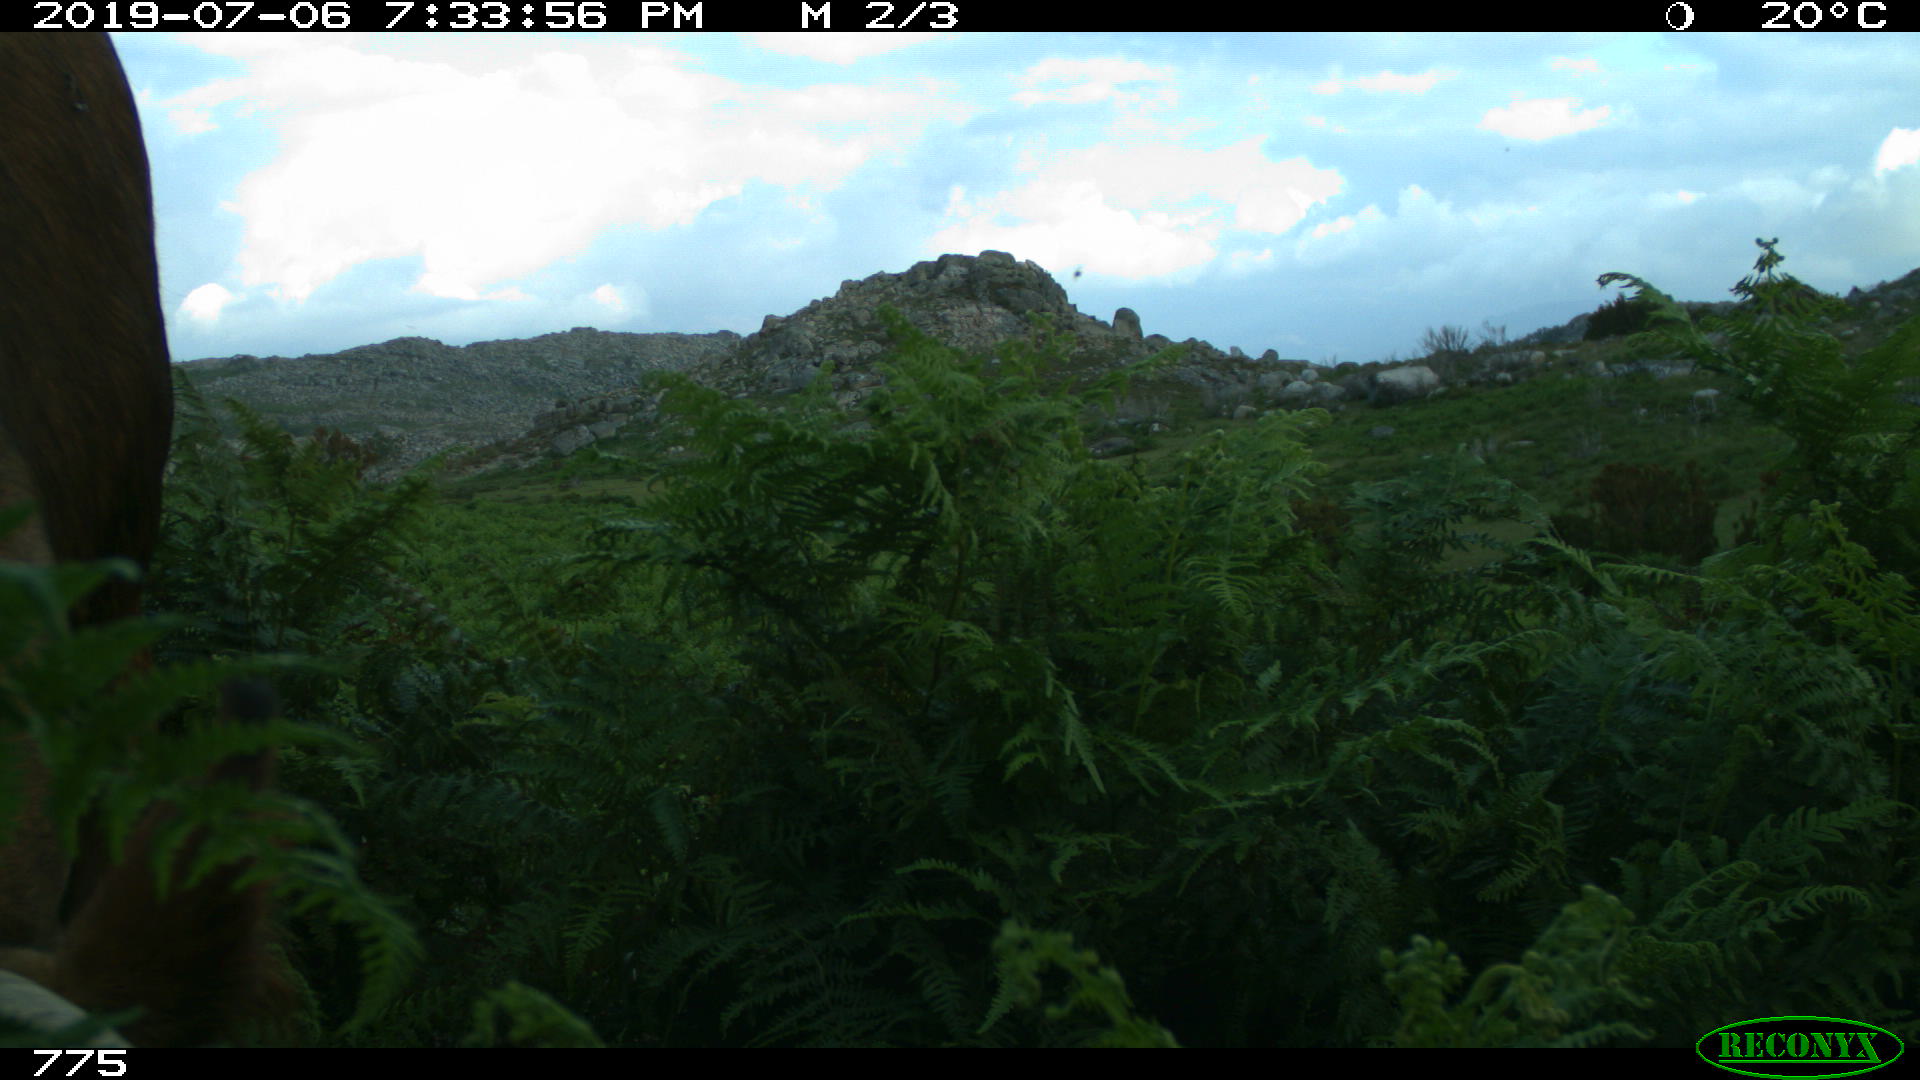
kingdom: Animalia
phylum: Chordata
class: Mammalia
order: Artiodactyla
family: Bovidae
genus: Bos
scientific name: Bos taurus
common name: Domesticated cattle
